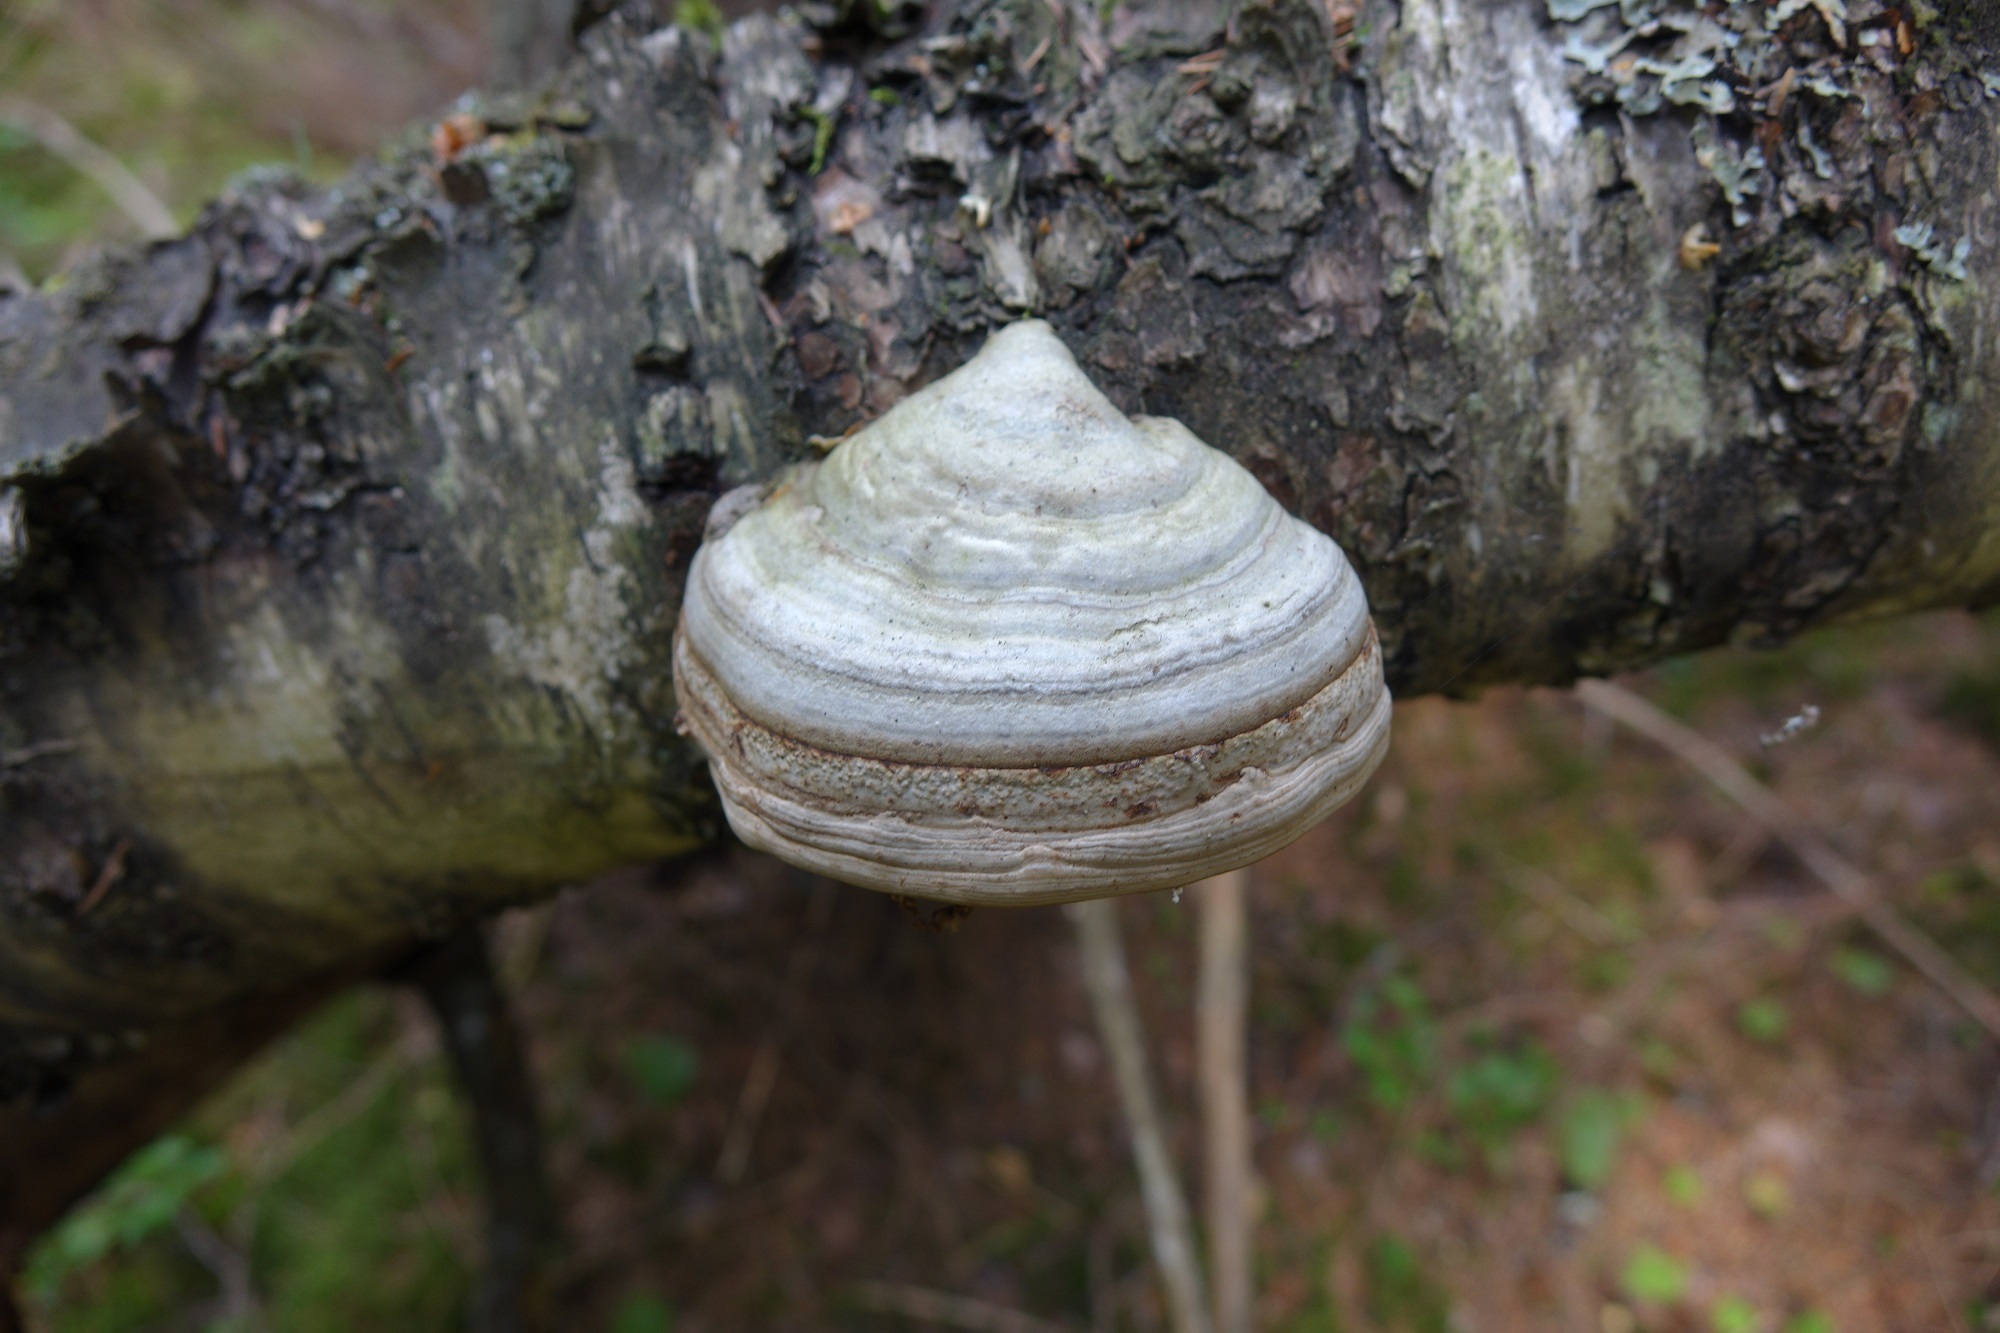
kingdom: Fungi
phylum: Basidiomycota
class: Agaricomycetes
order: Polyporales
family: Polyporaceae
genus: Fomes
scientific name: Fomes fomentarius
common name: Hoof fungus
